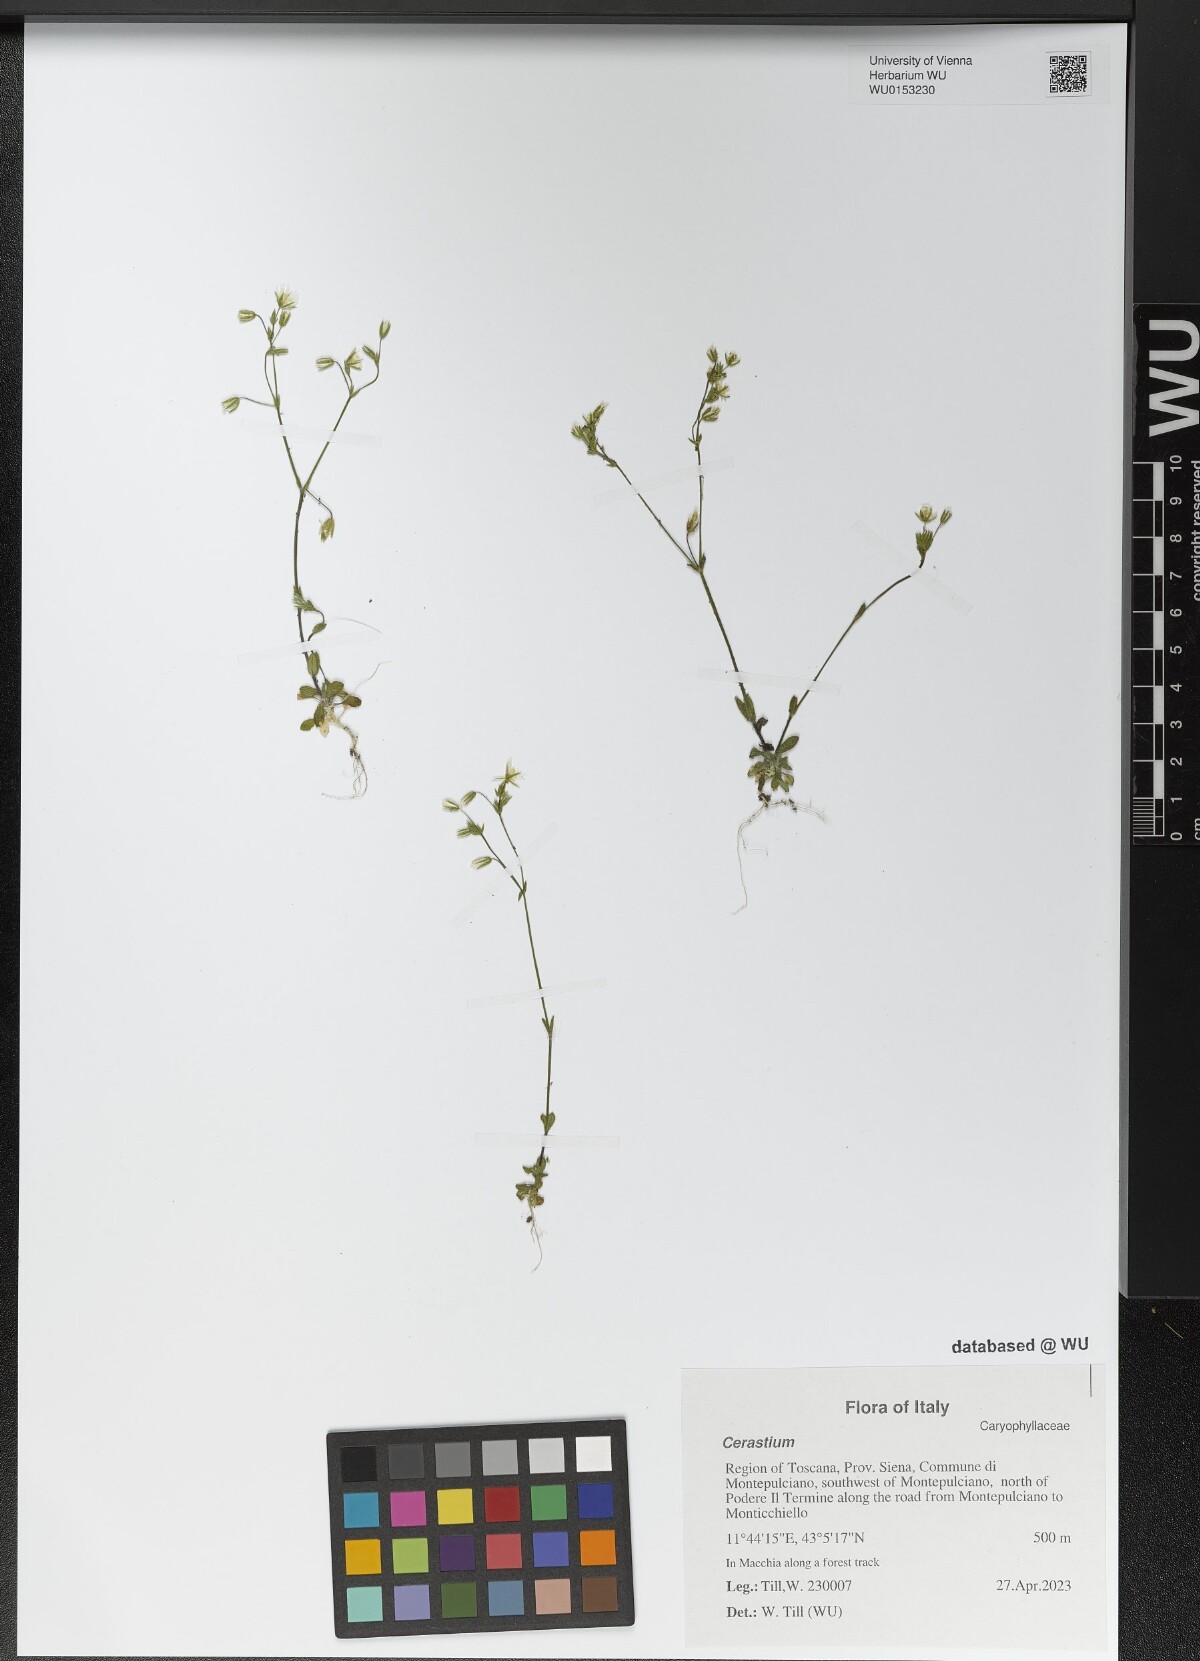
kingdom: Plantae
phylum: Tracheophyta
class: Magnoliopsida
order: Caryophyllales
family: Caryophyllaceae
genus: Cerastium
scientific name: Cerastium
